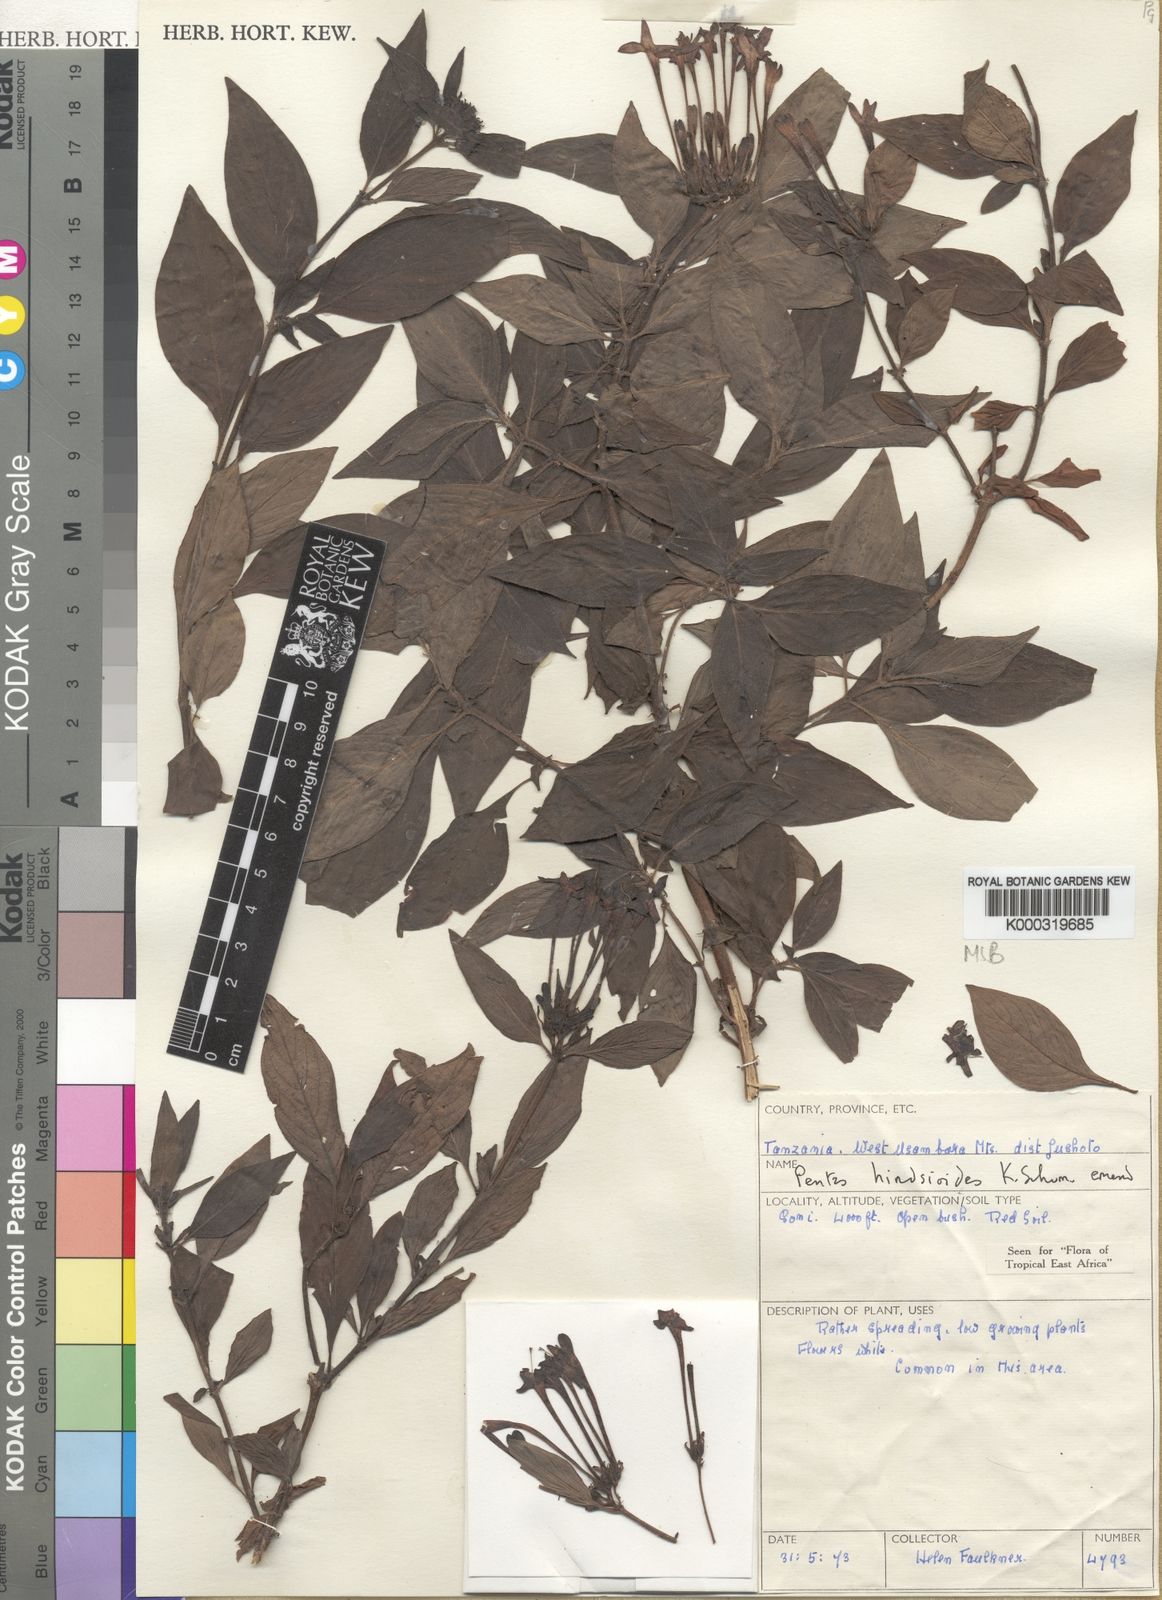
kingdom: Plantae
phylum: Tracheophyta
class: Magnoliopsida
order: Gentianales
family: Rubiaceae
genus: Chamaepentas
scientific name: Chamaepentas hindsioides
